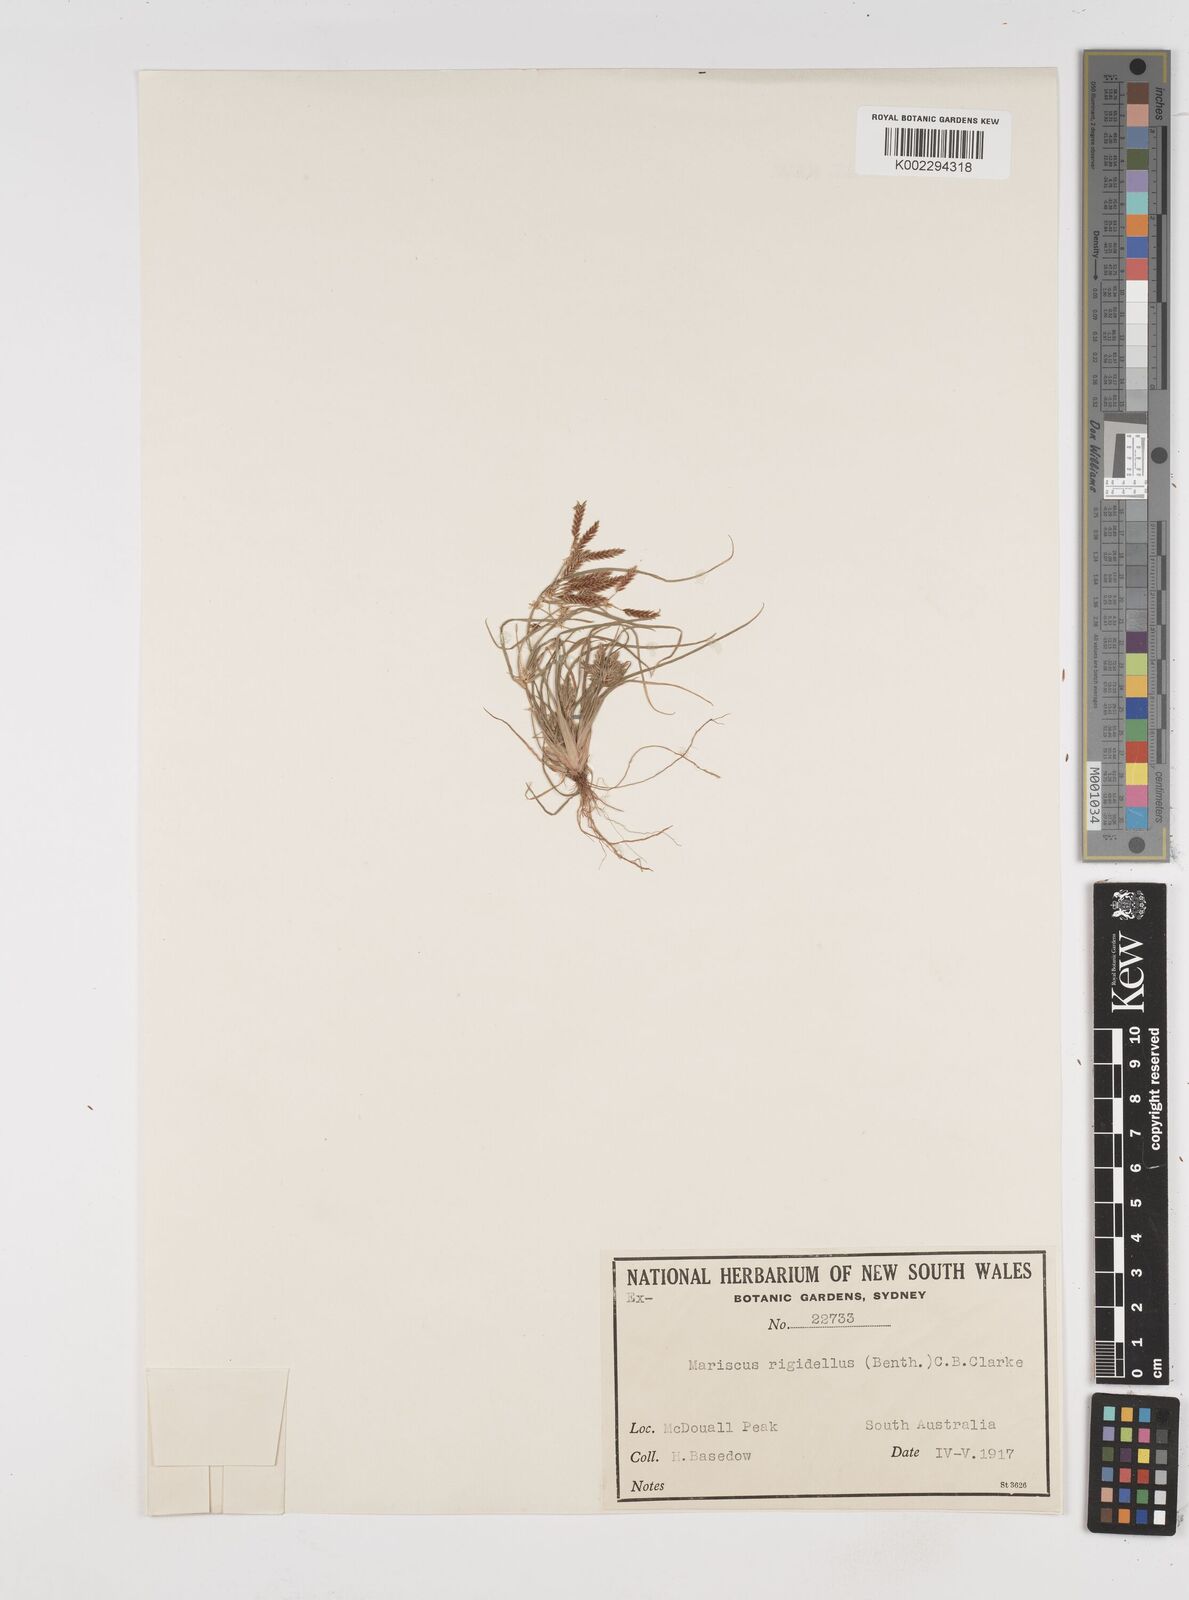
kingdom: Plantae
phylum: Tracheophyta
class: Liliopsida
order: Poales
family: Cyperaceae
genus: Cyperus
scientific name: Cyperus rigidellus
